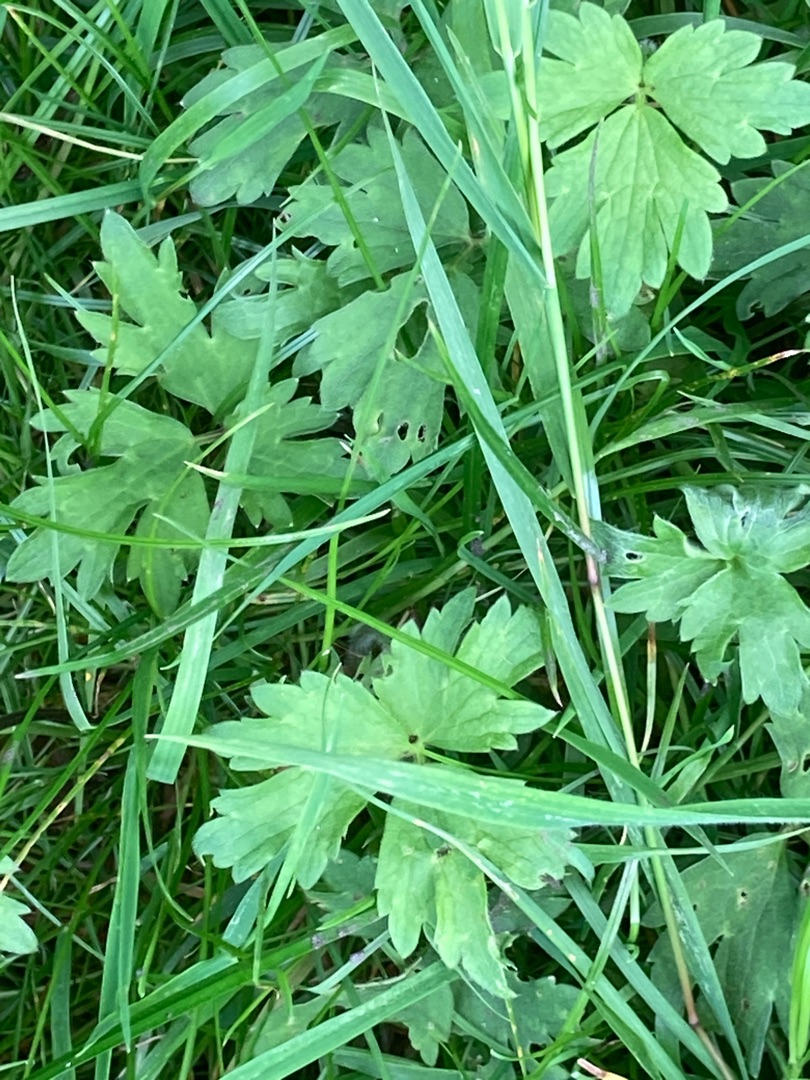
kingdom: Plantae
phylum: Tracheophyta
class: Magnoliopsida
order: Ranunculales
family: Ranunculaceae
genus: Ranunculus
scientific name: Ranunculus repens
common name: Lav ranunkel
